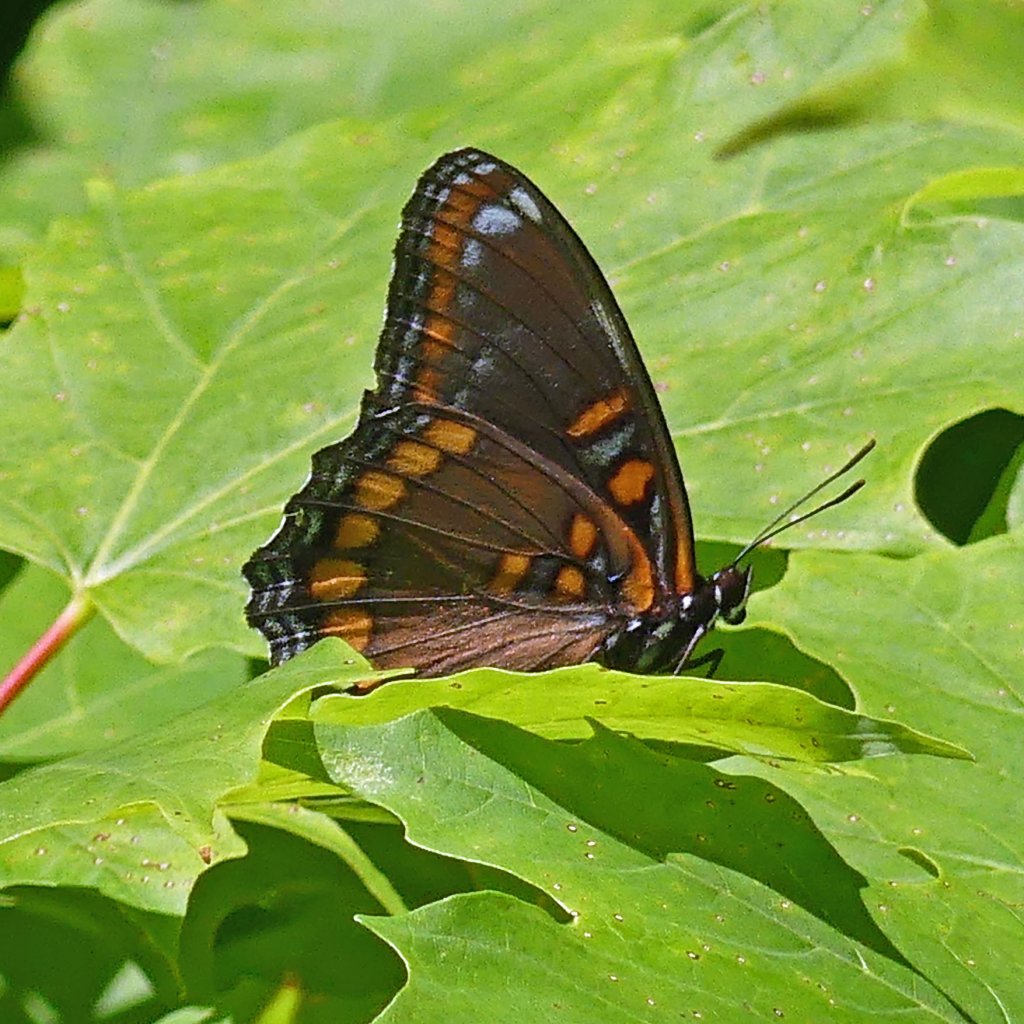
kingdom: Animalia
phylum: Arthropoda
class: Insecta
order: Lepidoptera
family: Nymphalidae
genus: Limenitis
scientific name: Limenitis astyanax
